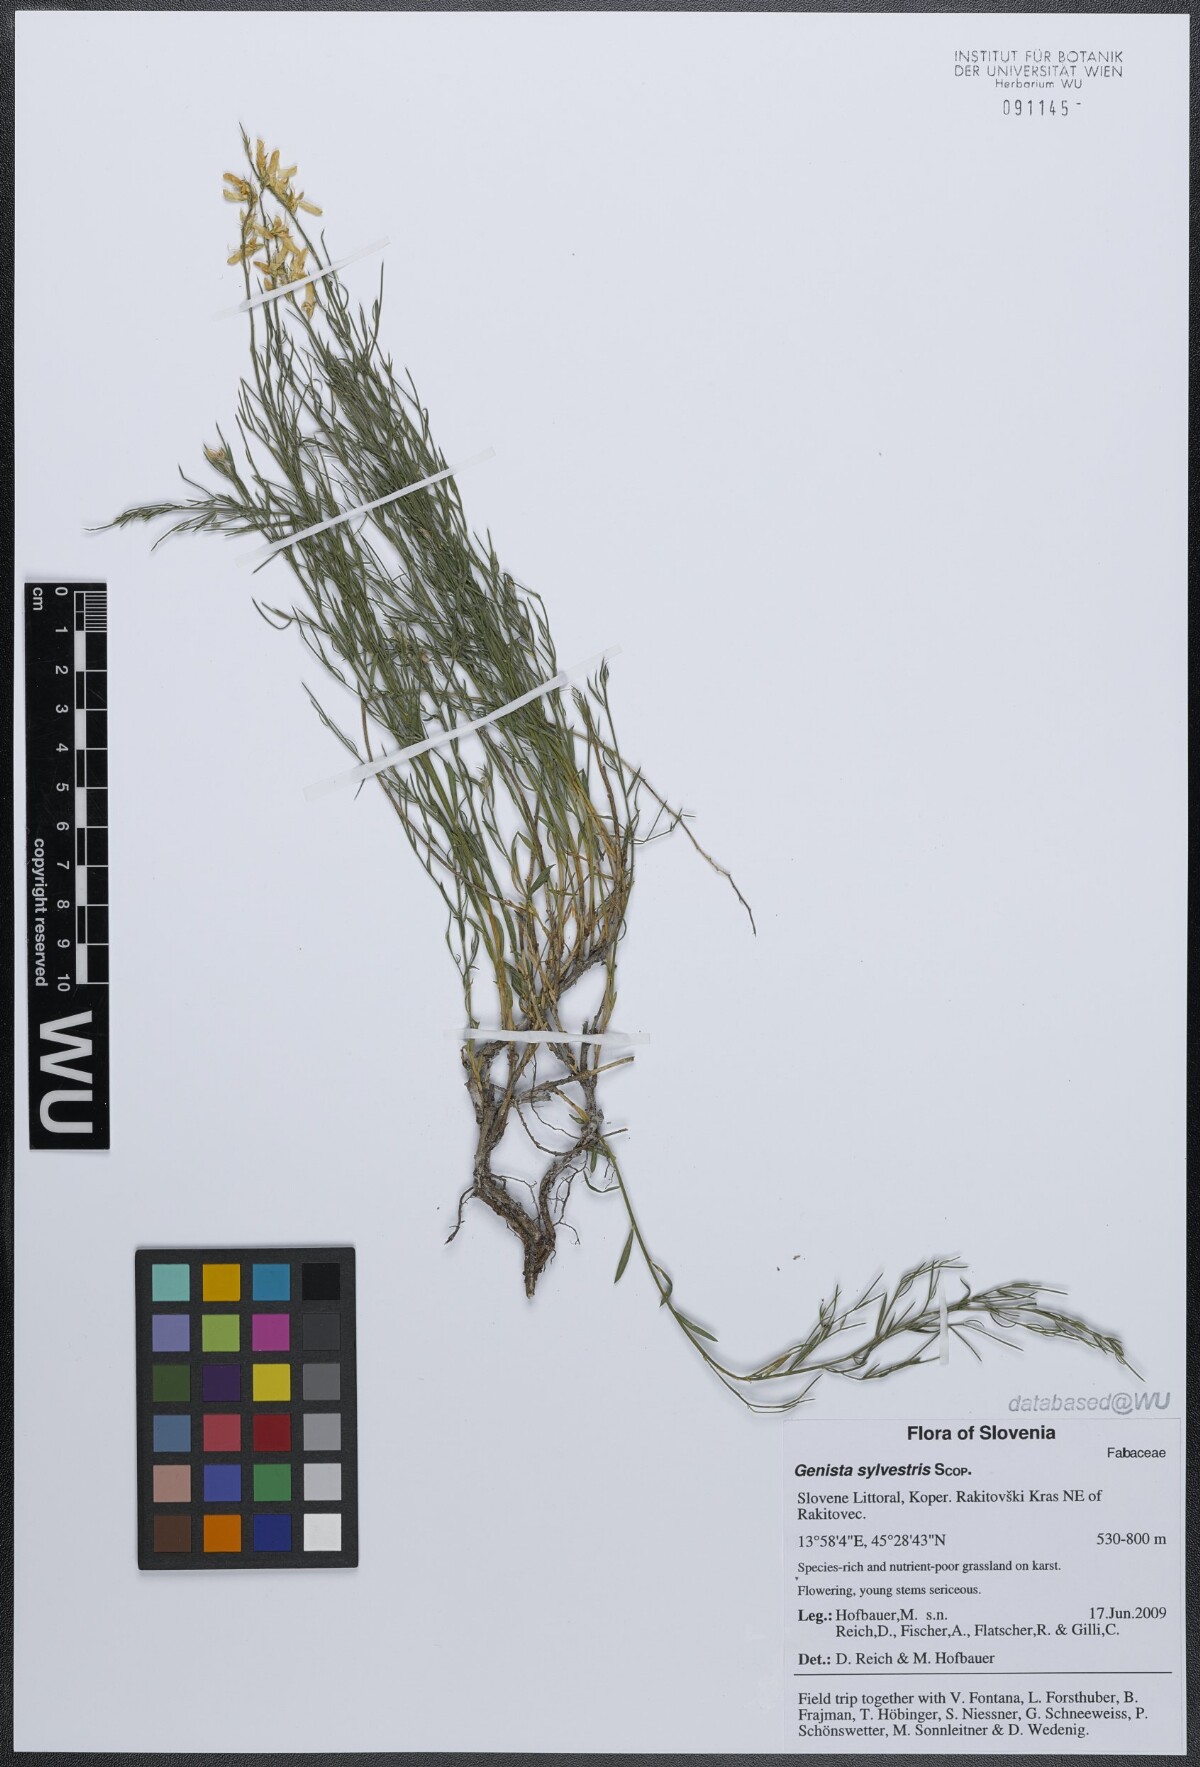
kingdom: Plantae
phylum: Tracheophyta
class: Magnoliopsida
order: Fabales
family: Fabaceae
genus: Genista
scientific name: Genista sylvestris
